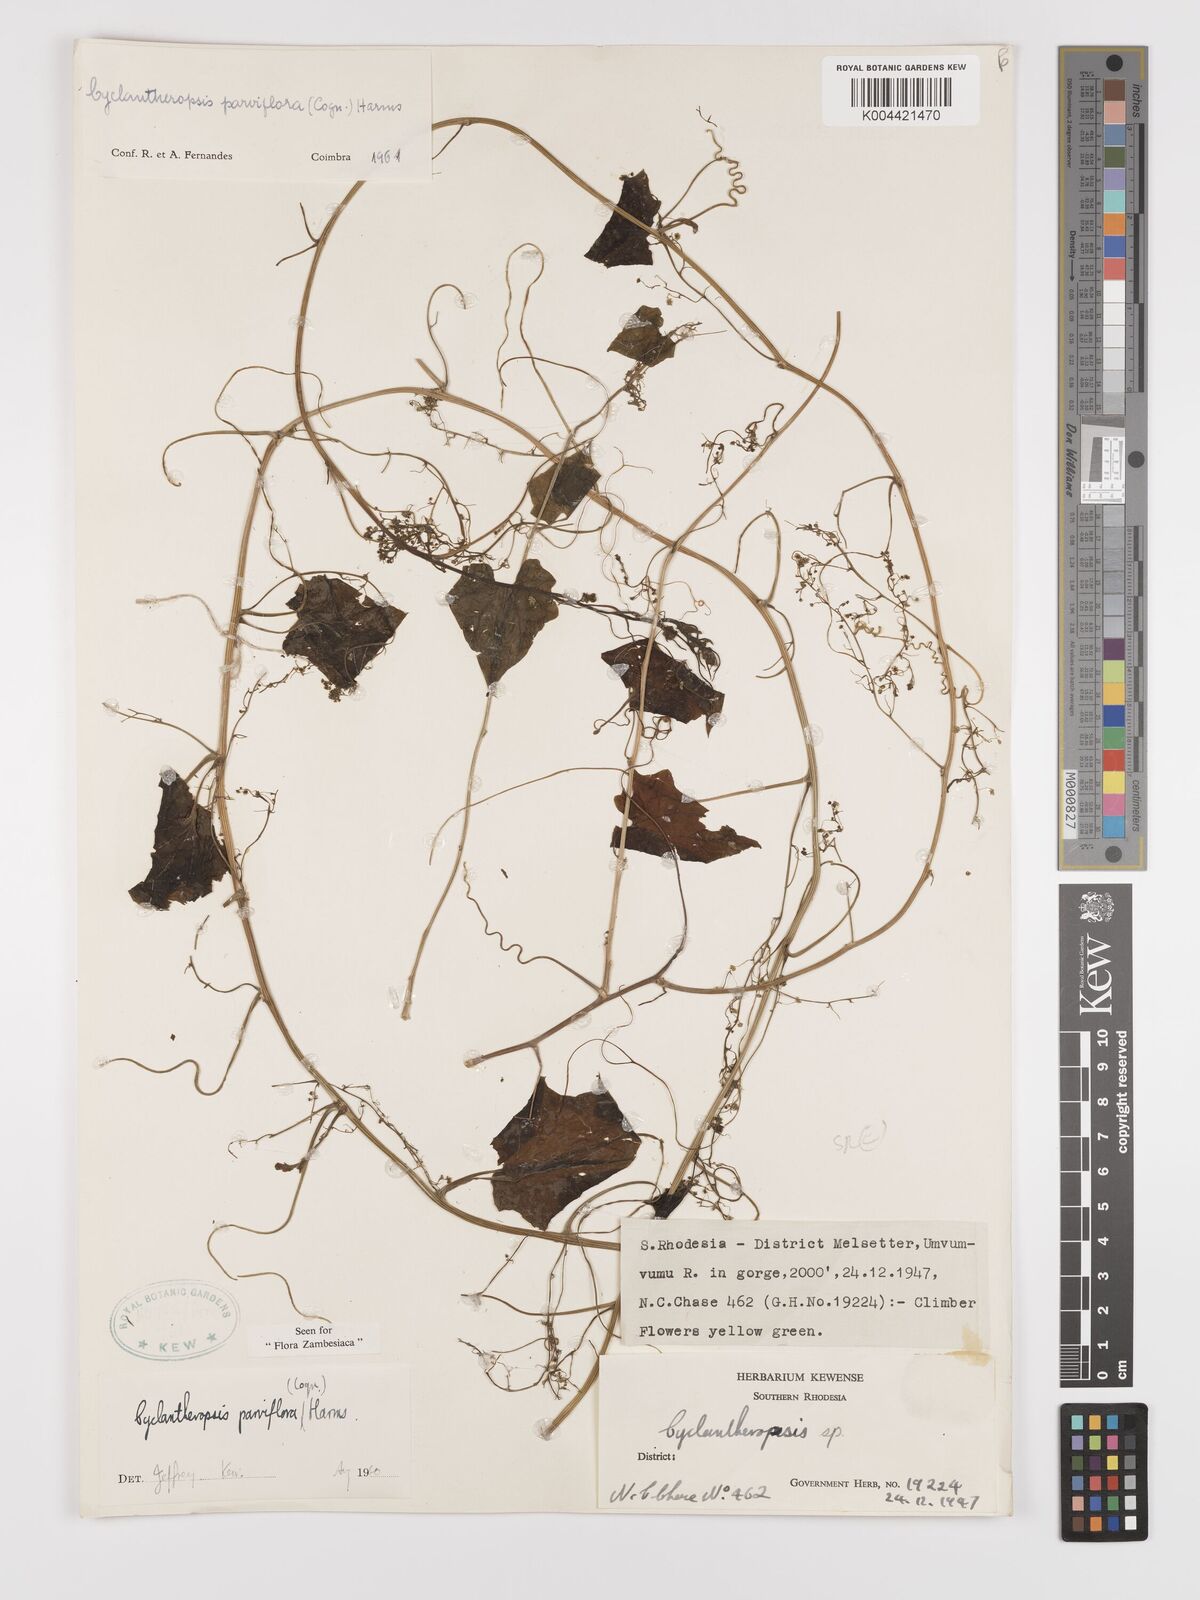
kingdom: Plantae
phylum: Tracheophyta
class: Magnoliopsida
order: Cucurbitales
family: Cucurbitaceae
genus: Cyclantheropsis
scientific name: Cyclantheropsis parviflora
